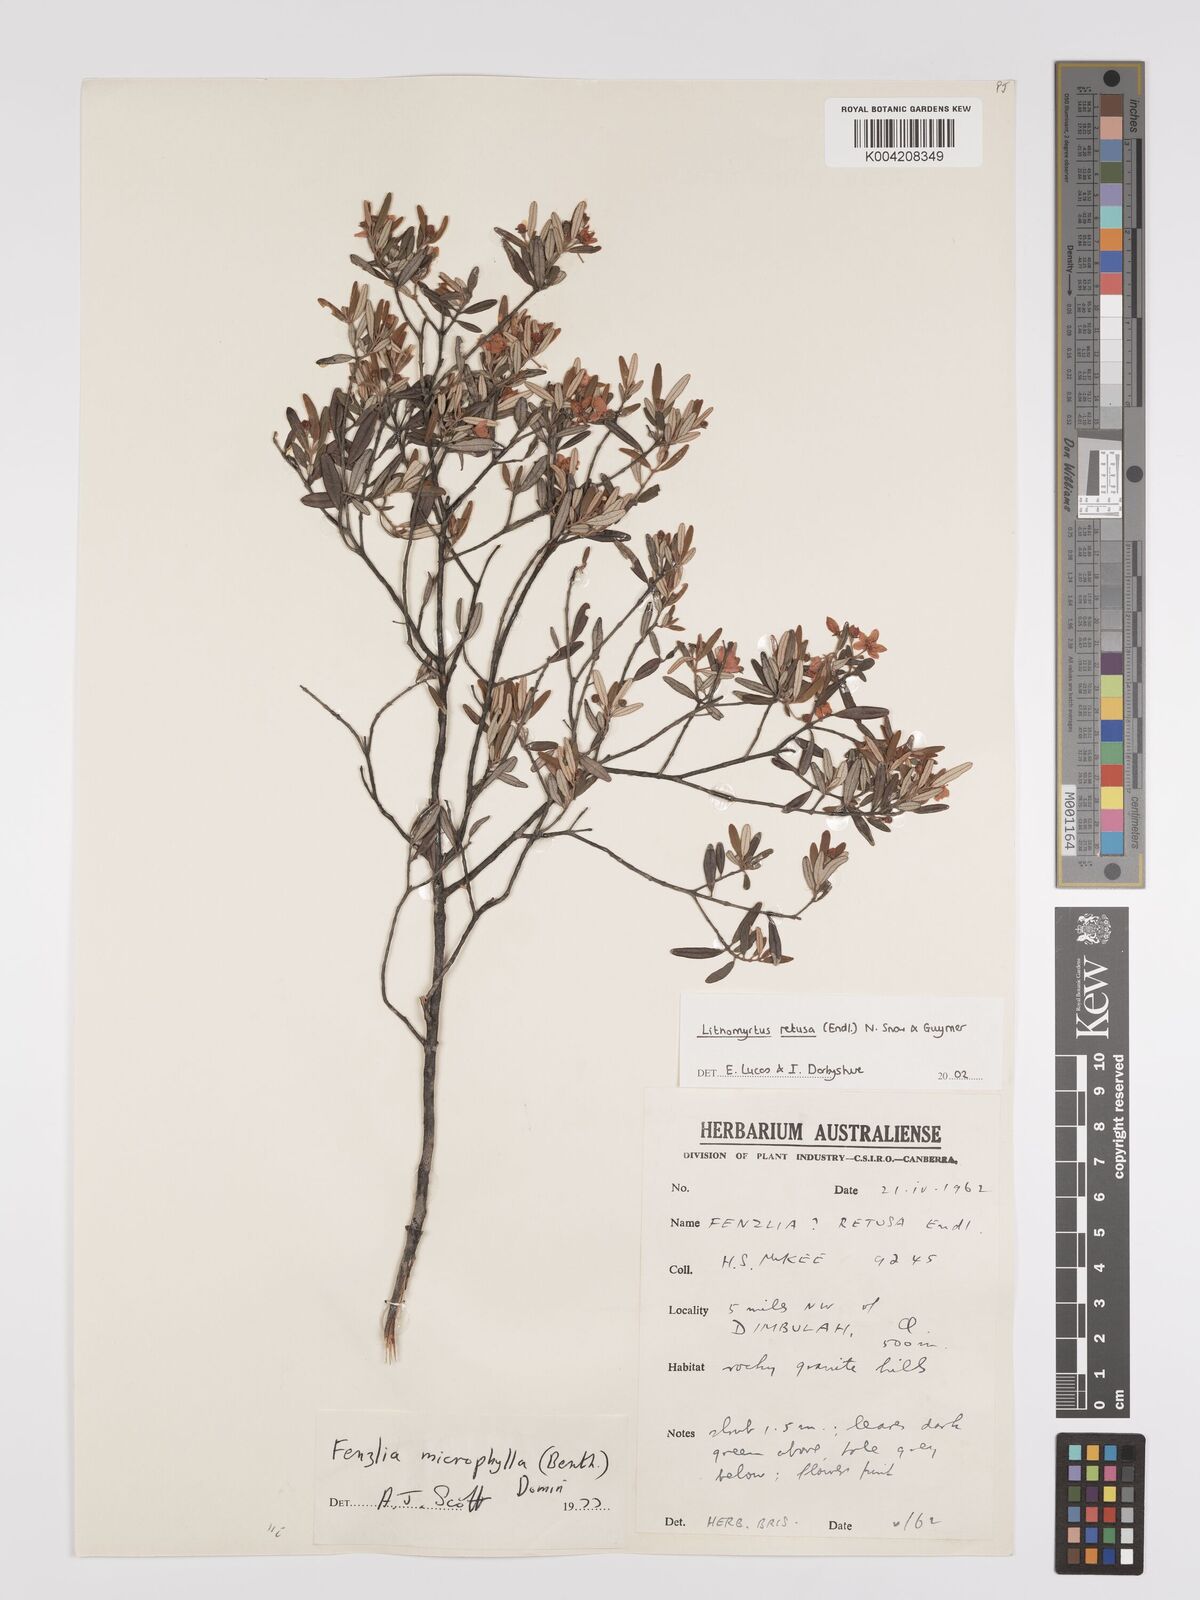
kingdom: Plantae
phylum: Tracheophyta
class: Magnoliopsida
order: Myrtales
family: Myrtaceae
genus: Lithomyrtus
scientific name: Lithomyrtus retusa
